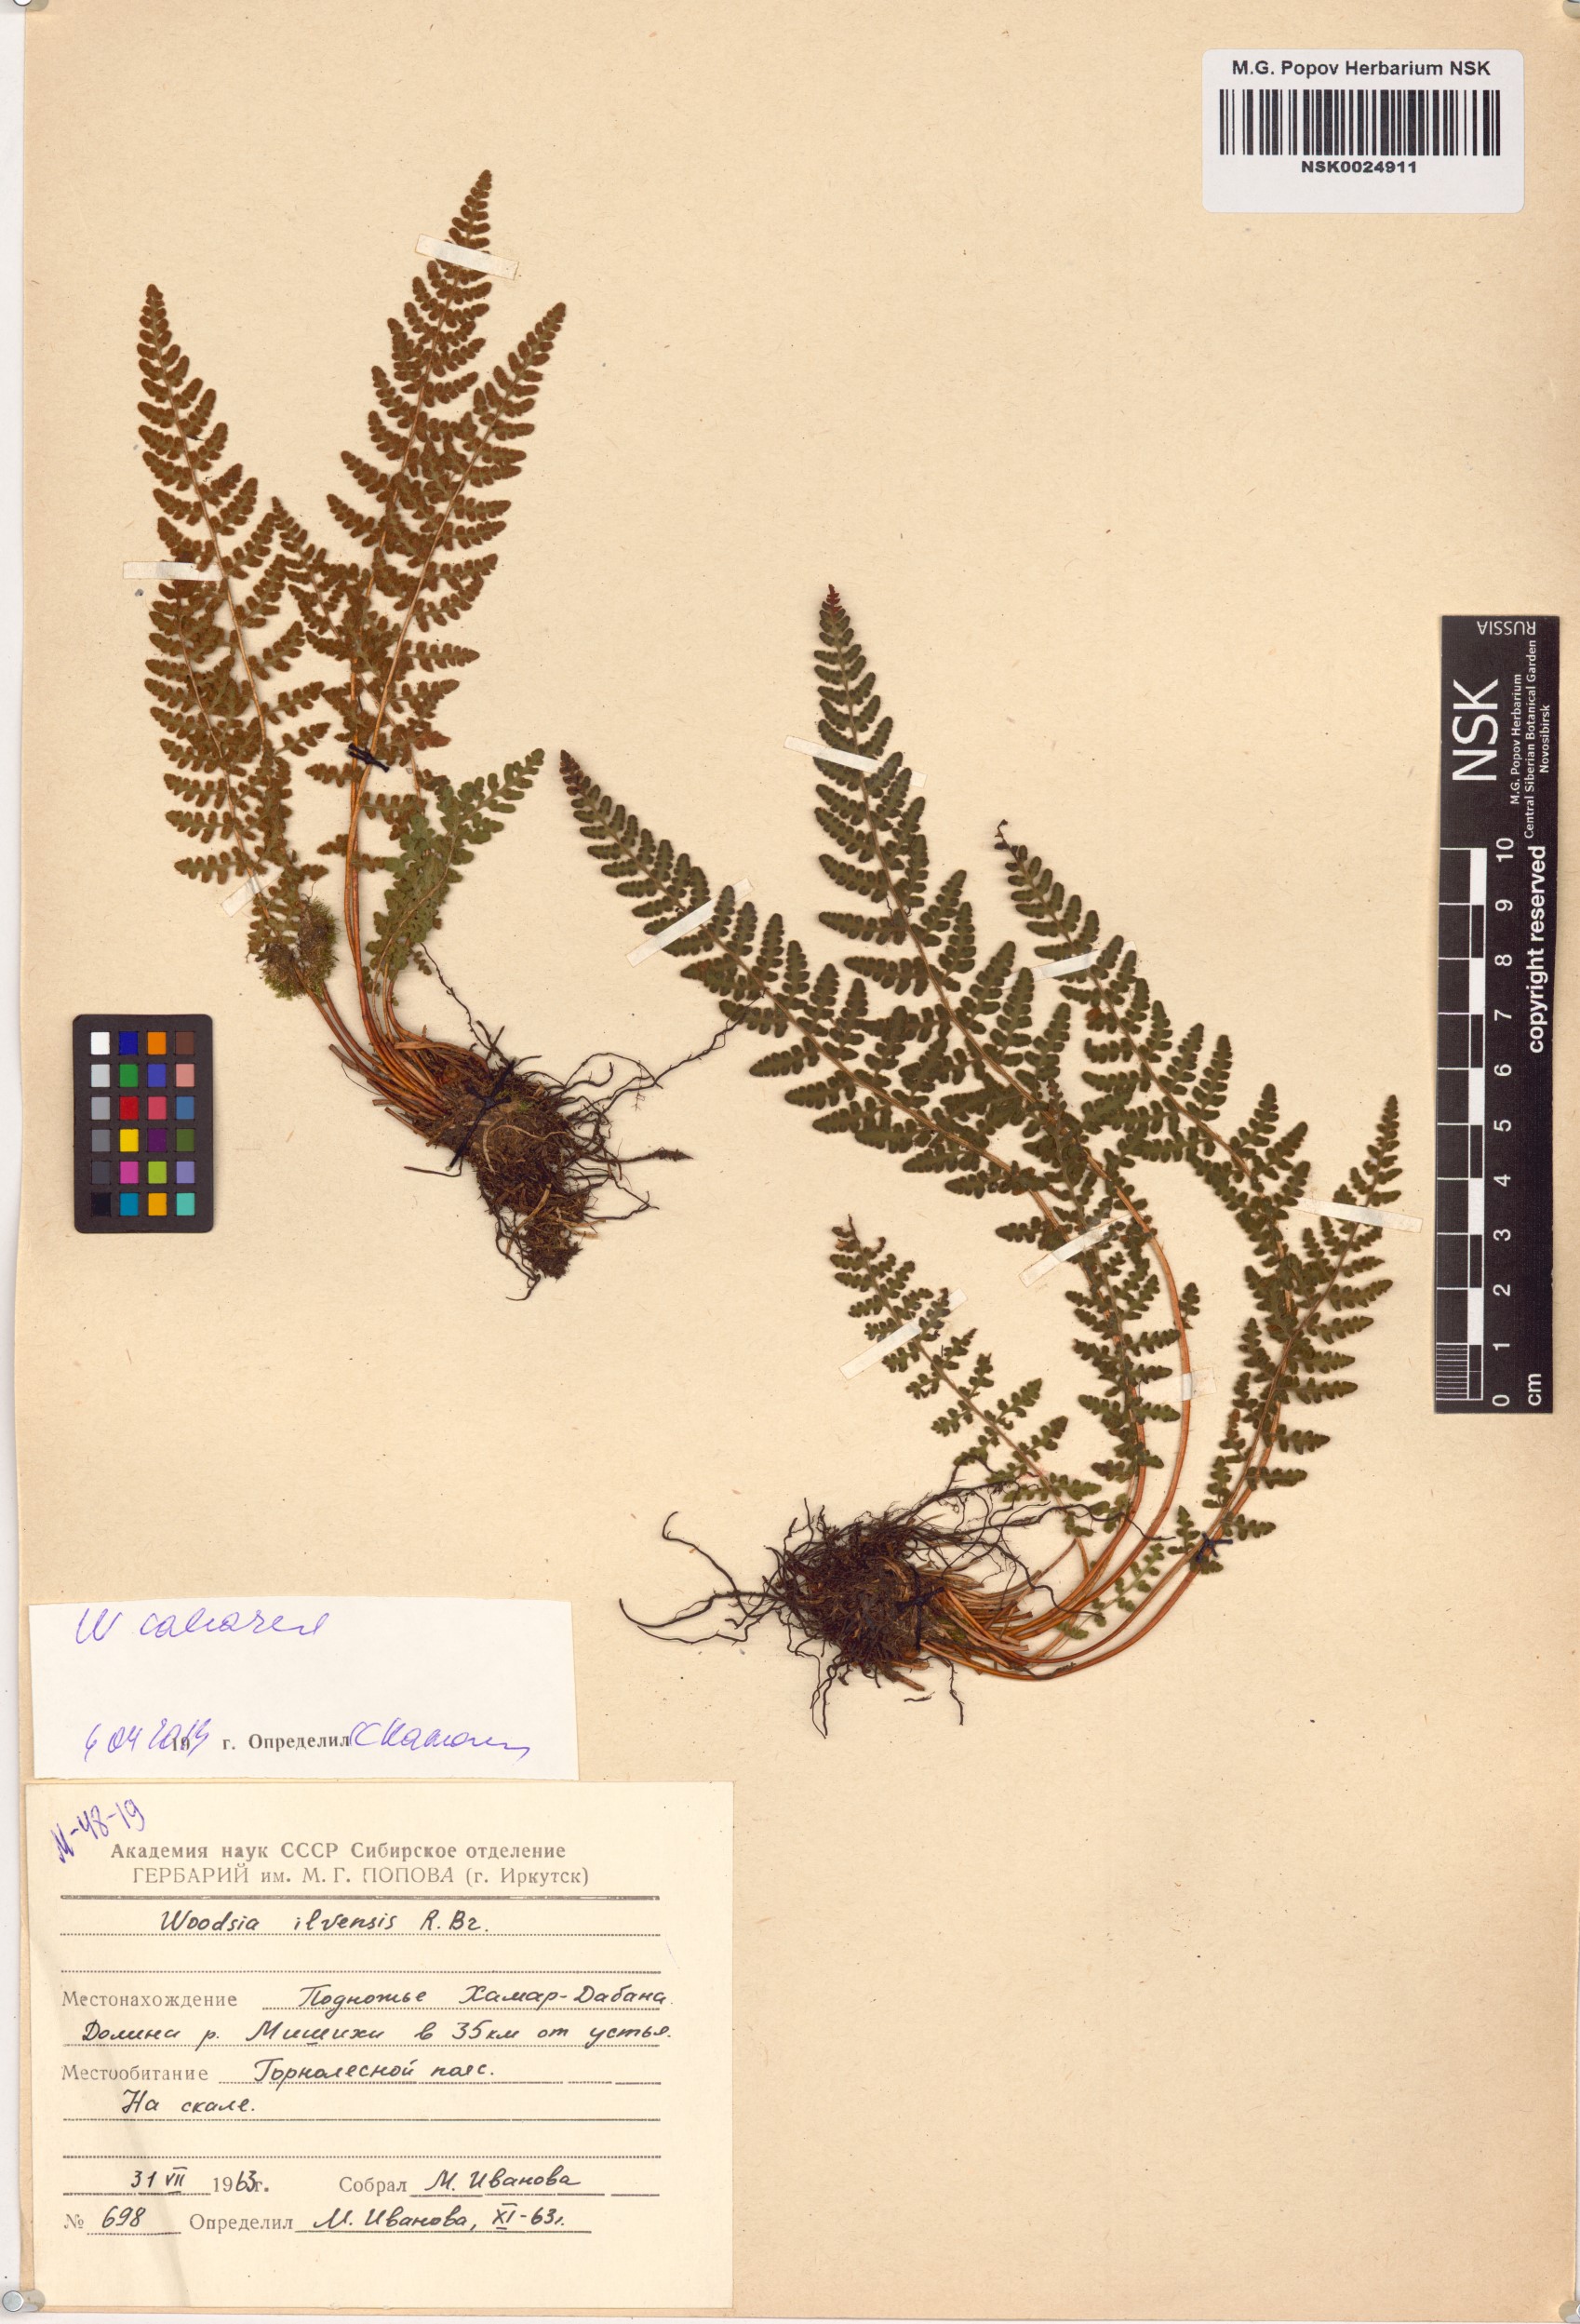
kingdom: Plantae
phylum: Tracheophyta
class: Polypodiopsida
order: Polypodiales
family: Woodsiaceae
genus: Woodsia
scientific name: Woodsia calcarea
